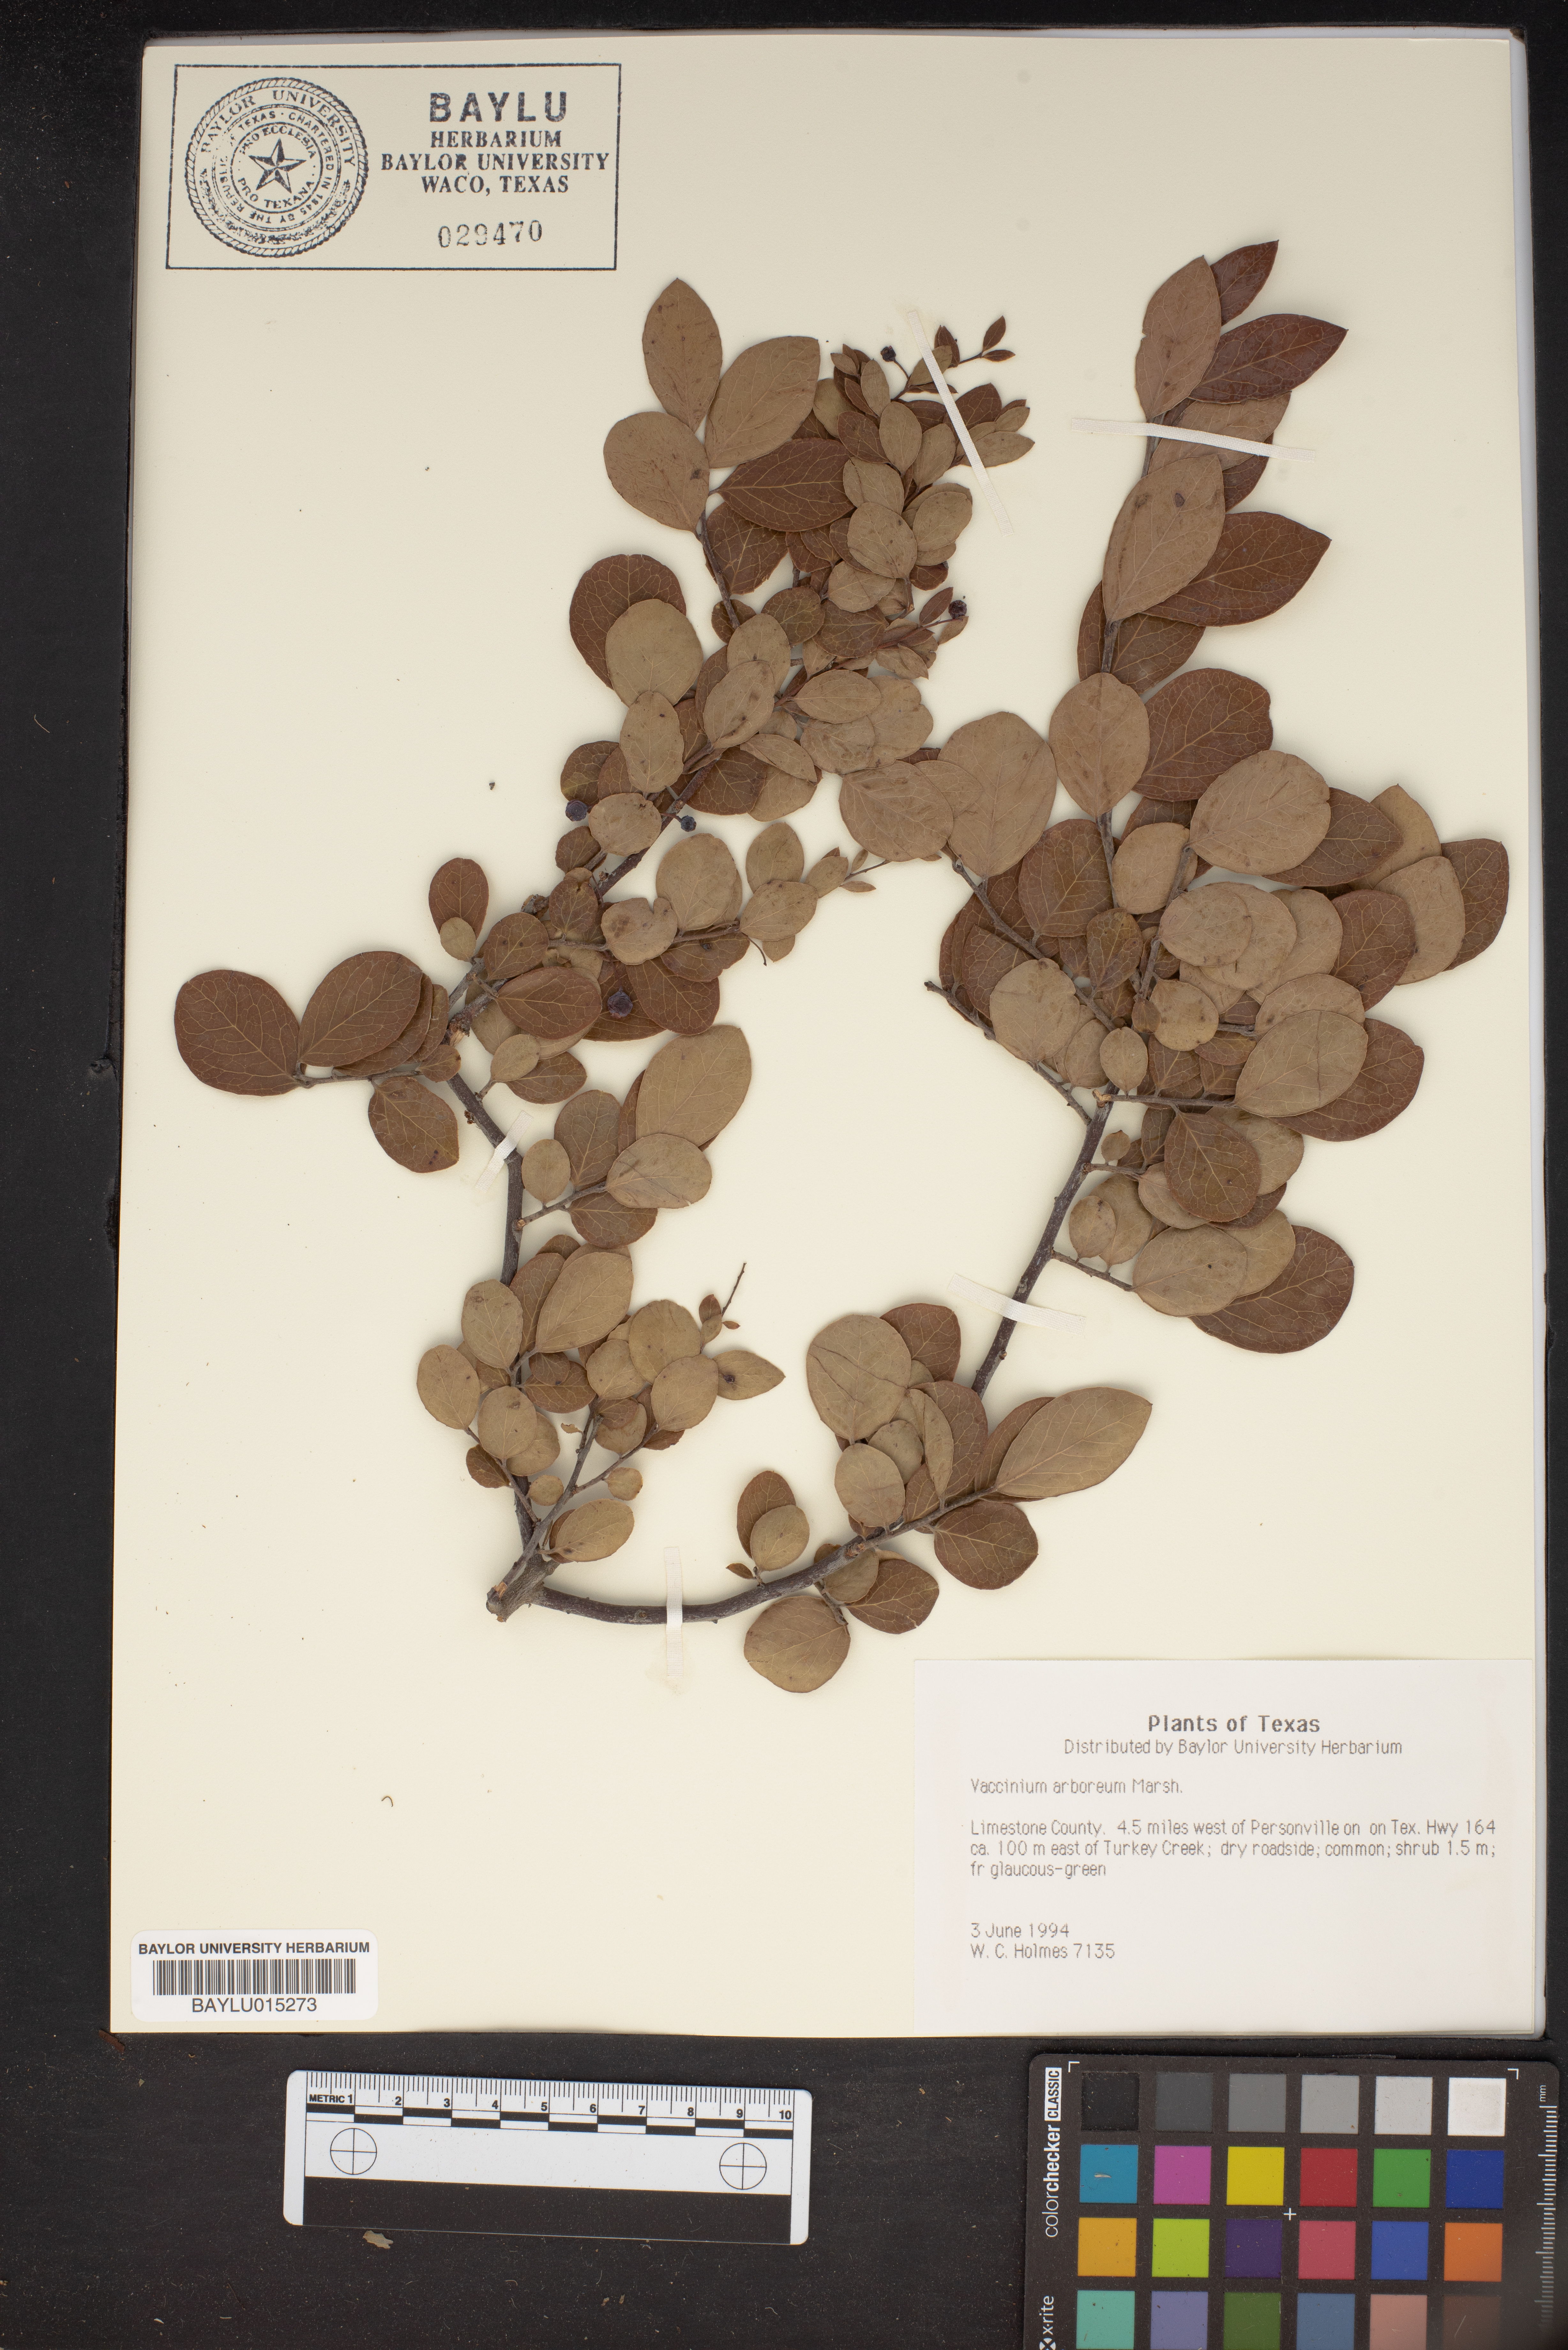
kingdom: Plantae
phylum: Tracheophyta
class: Magnoliopsida
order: Ericales
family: Ericaceae
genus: Vaccinium
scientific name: Vaccinium arboreum
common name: Farkleberry
